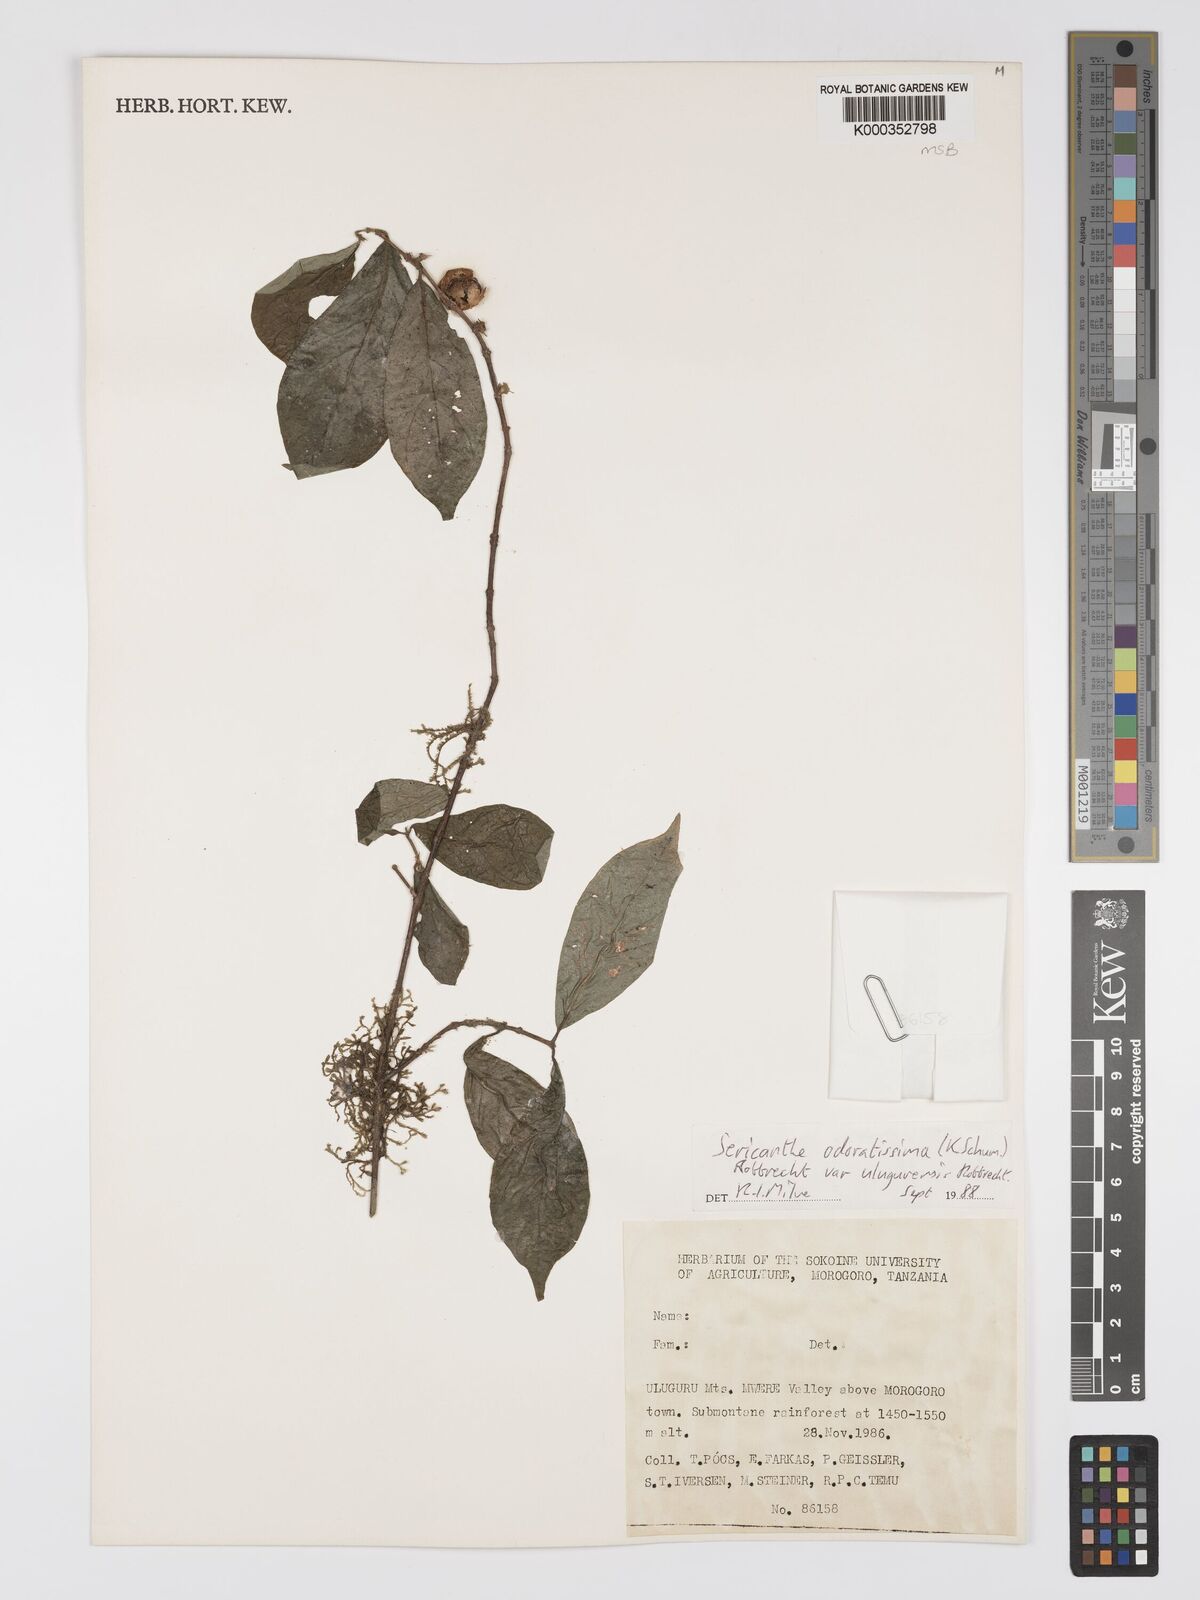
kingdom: Plantae
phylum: Tracheophyta
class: Magnoliopsida
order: Gentianales
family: Rubiaceae
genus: Sericanthe
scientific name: Sericanthe odoratissima
